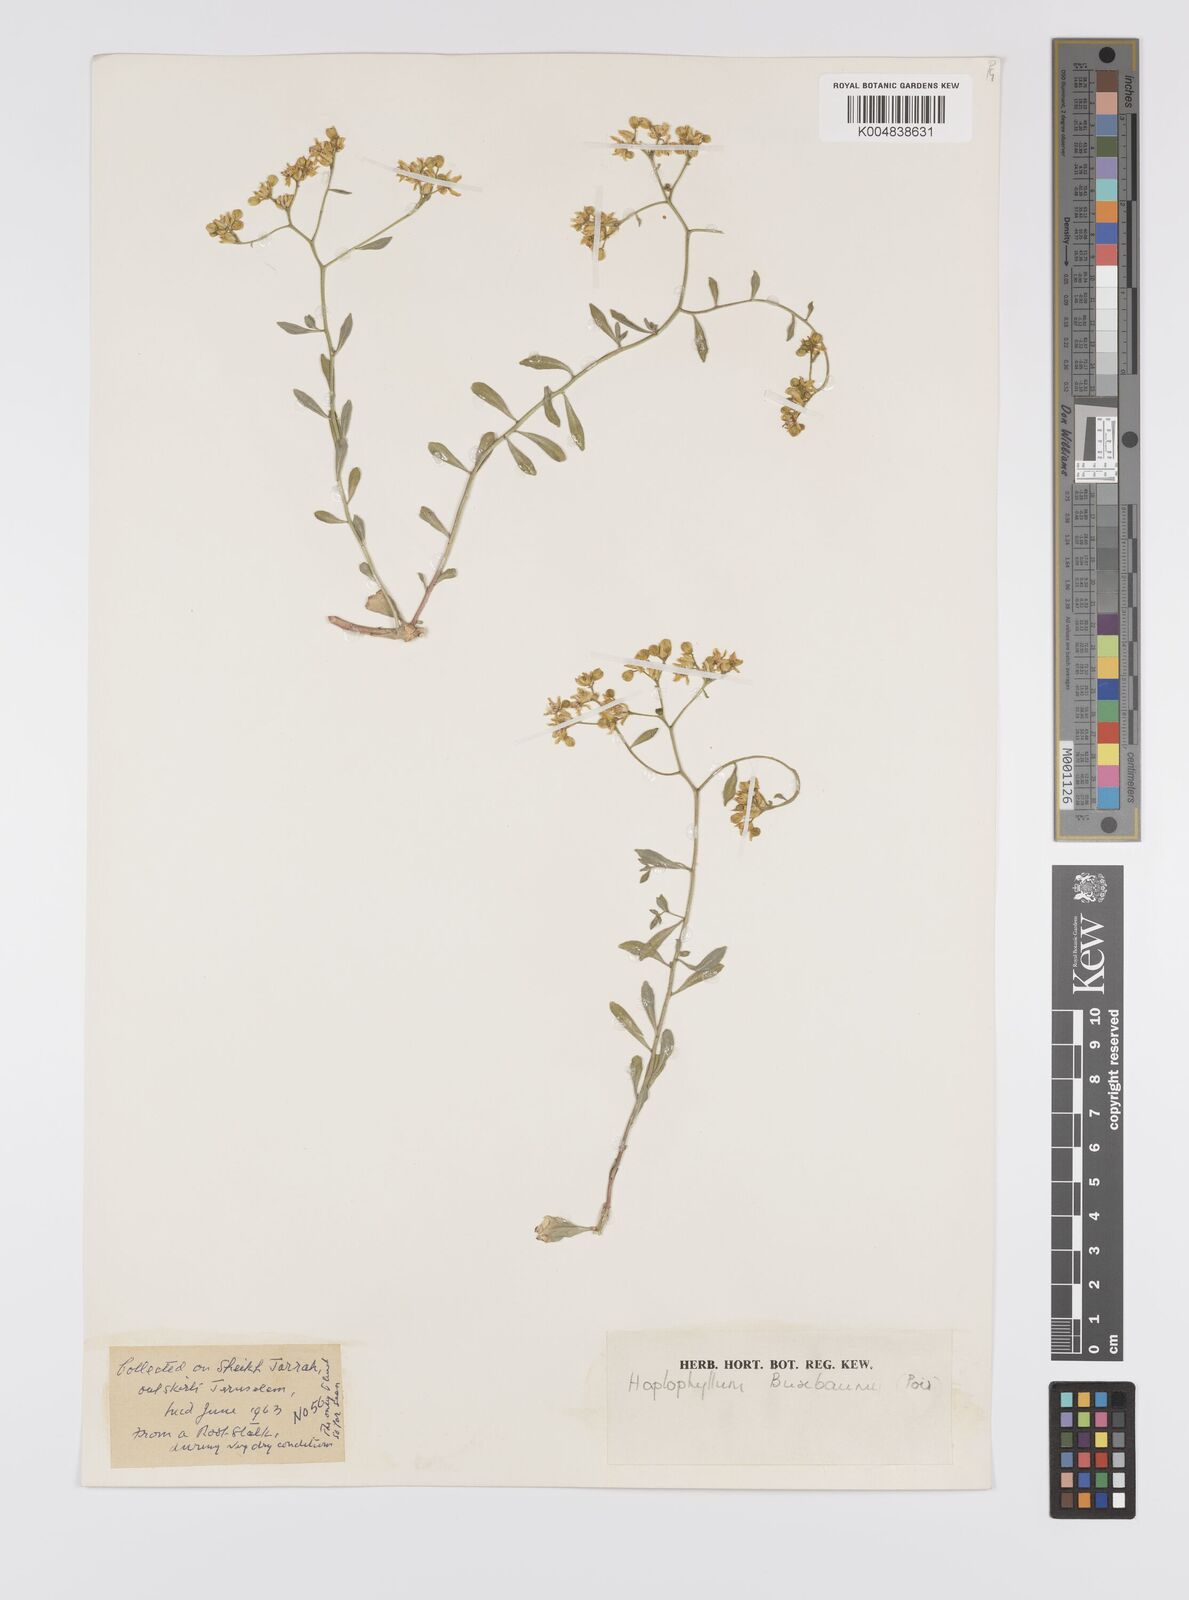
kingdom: Plantae
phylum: Tracheophyta
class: Magnoliopsida
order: Sapindales
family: Rutaceae
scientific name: Rutaceae
